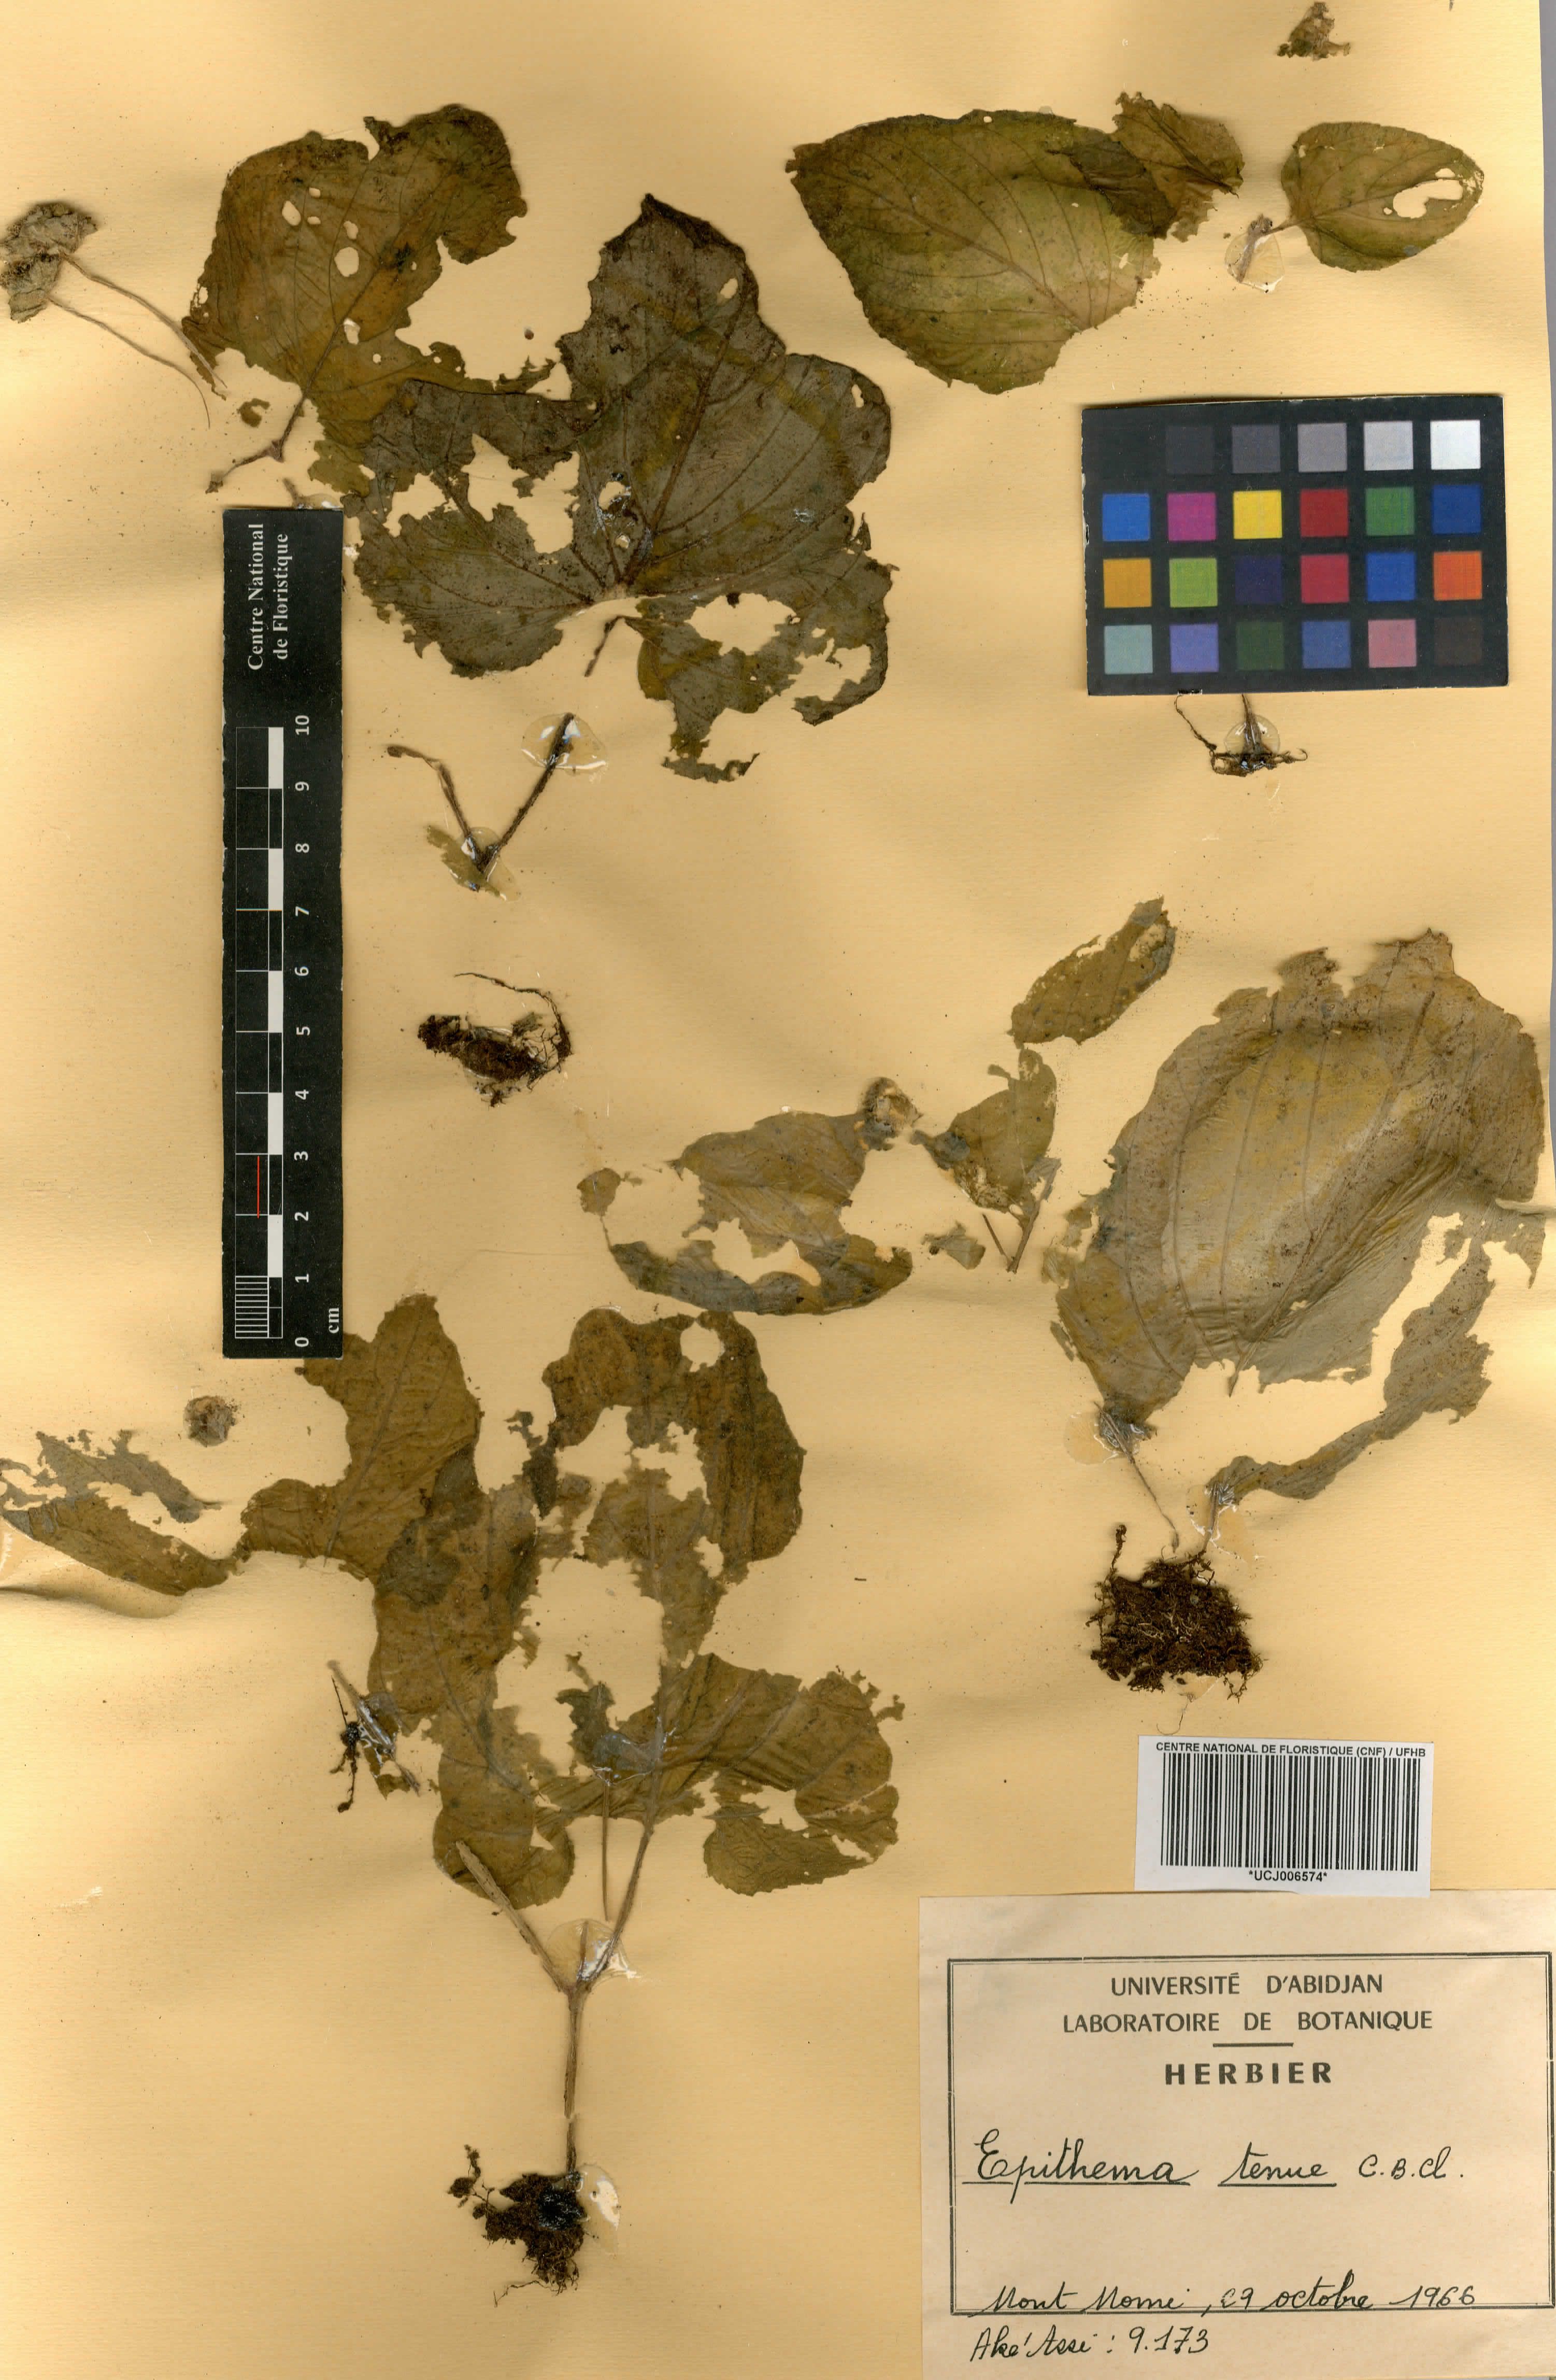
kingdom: Plantae
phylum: Tracheophyta
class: Magnoliopsida
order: Lamiales
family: Gesneriaceae
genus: Epithema
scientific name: Epithema tenue
